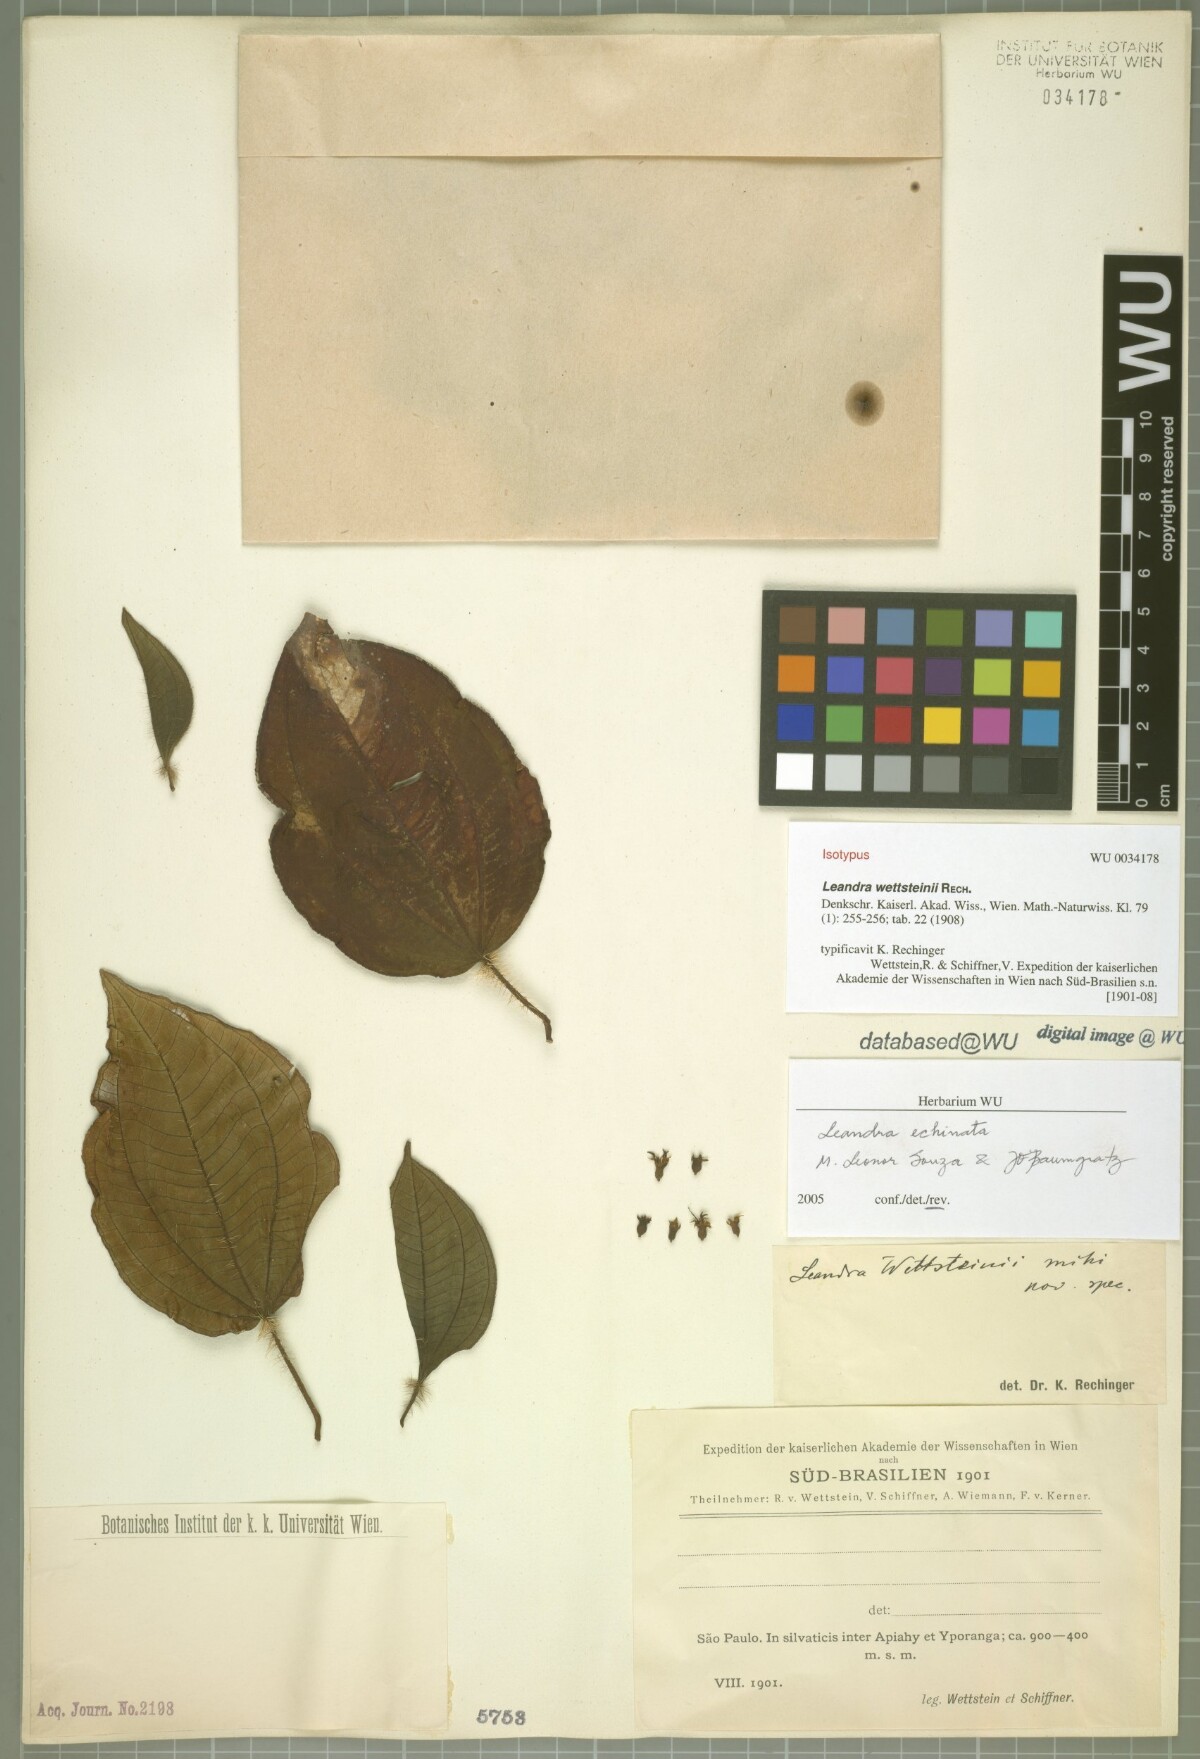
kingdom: Plantae
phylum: Tracheophyta
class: Magnoliopsida
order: Myrtales
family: Melastomataceae
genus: Miconia
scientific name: Miconia leaechinata
